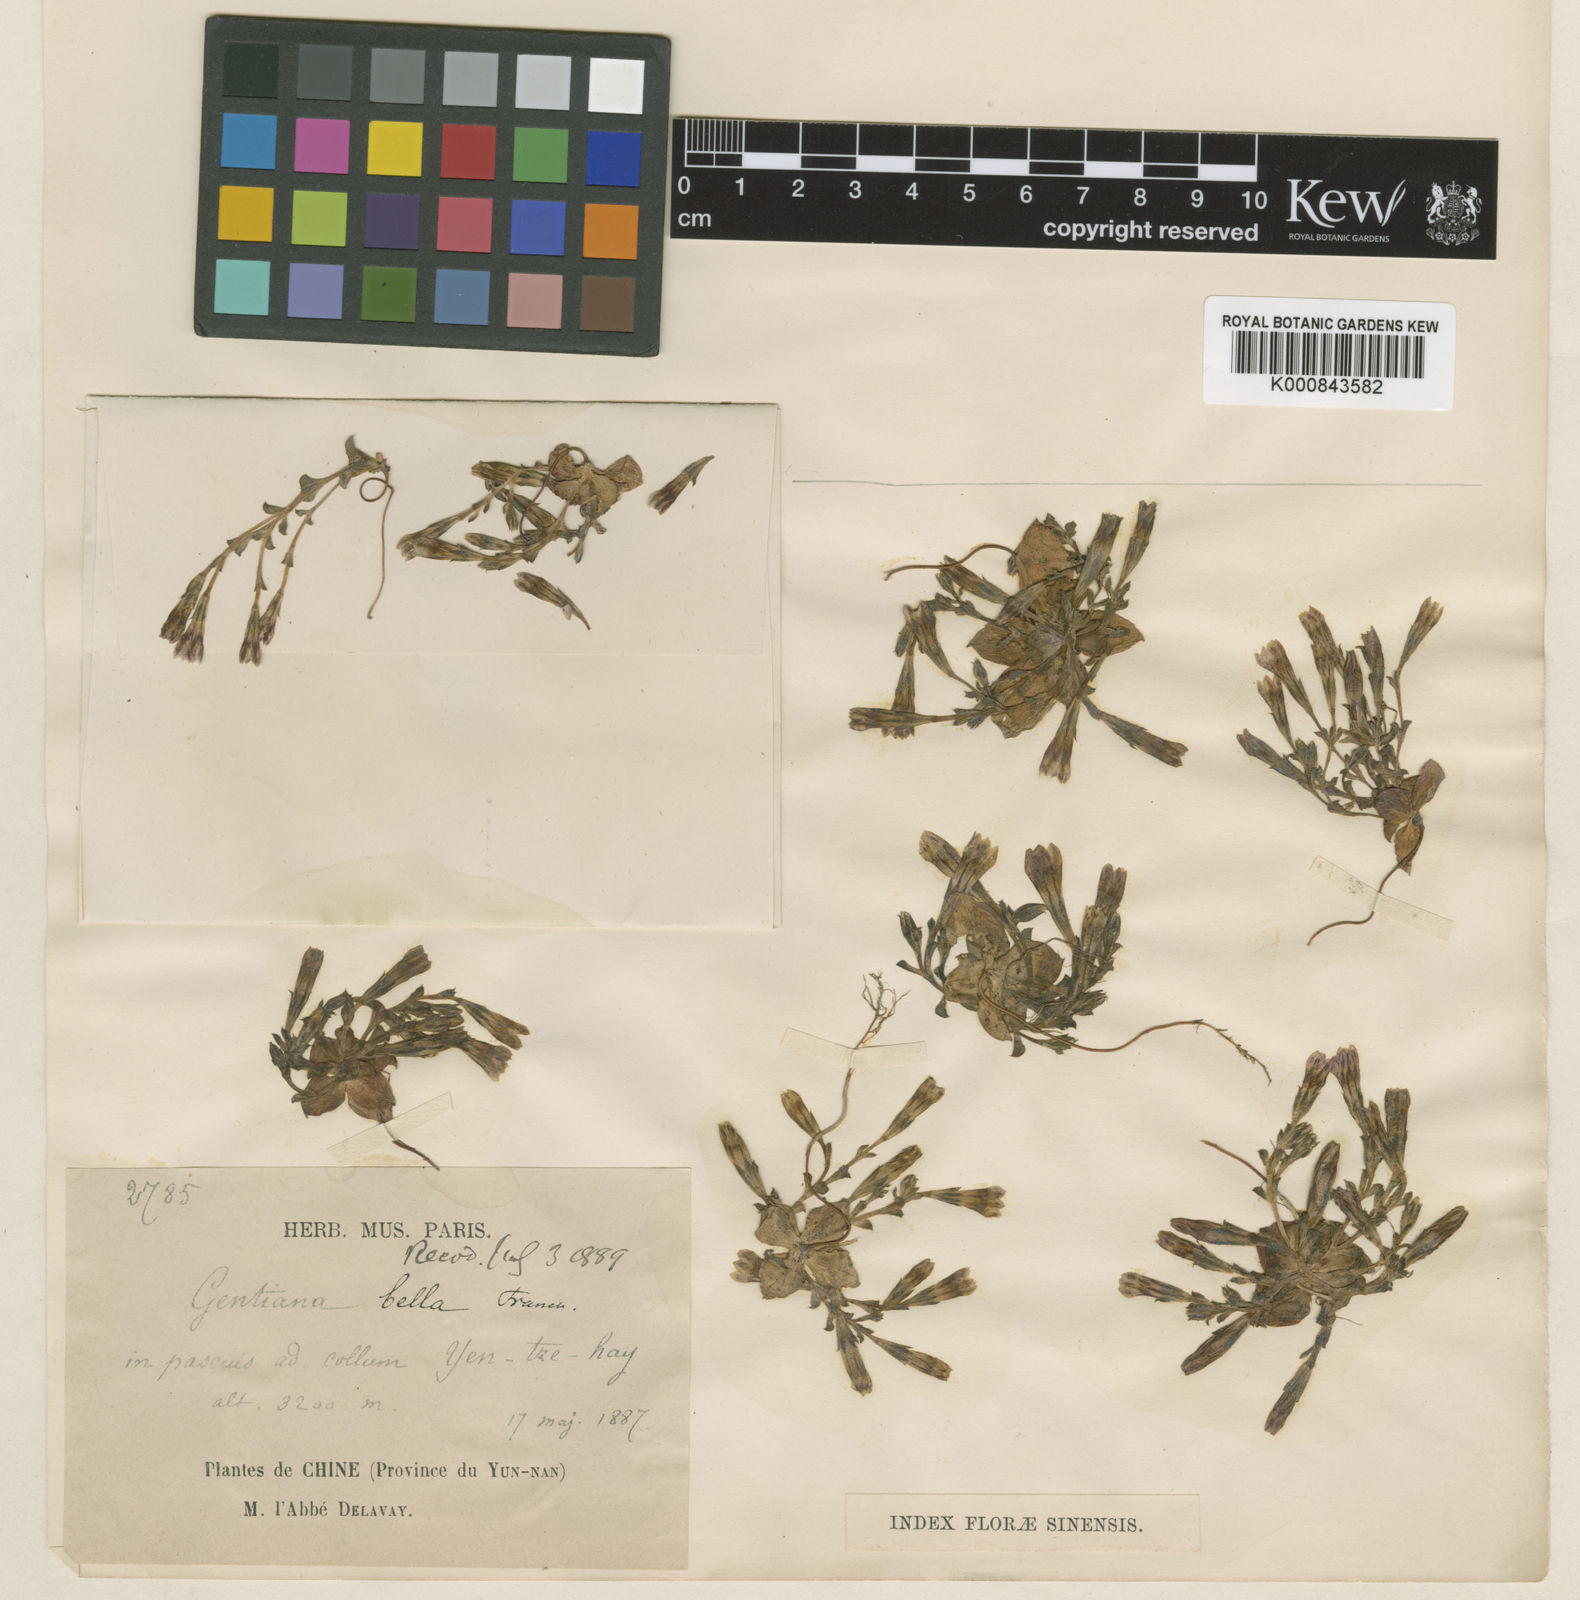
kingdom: Plantae
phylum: Tracheophyta
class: Magnoliopsida
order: Gentianales
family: Gentianaceae
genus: Gentiana
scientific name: Gentiana bella
